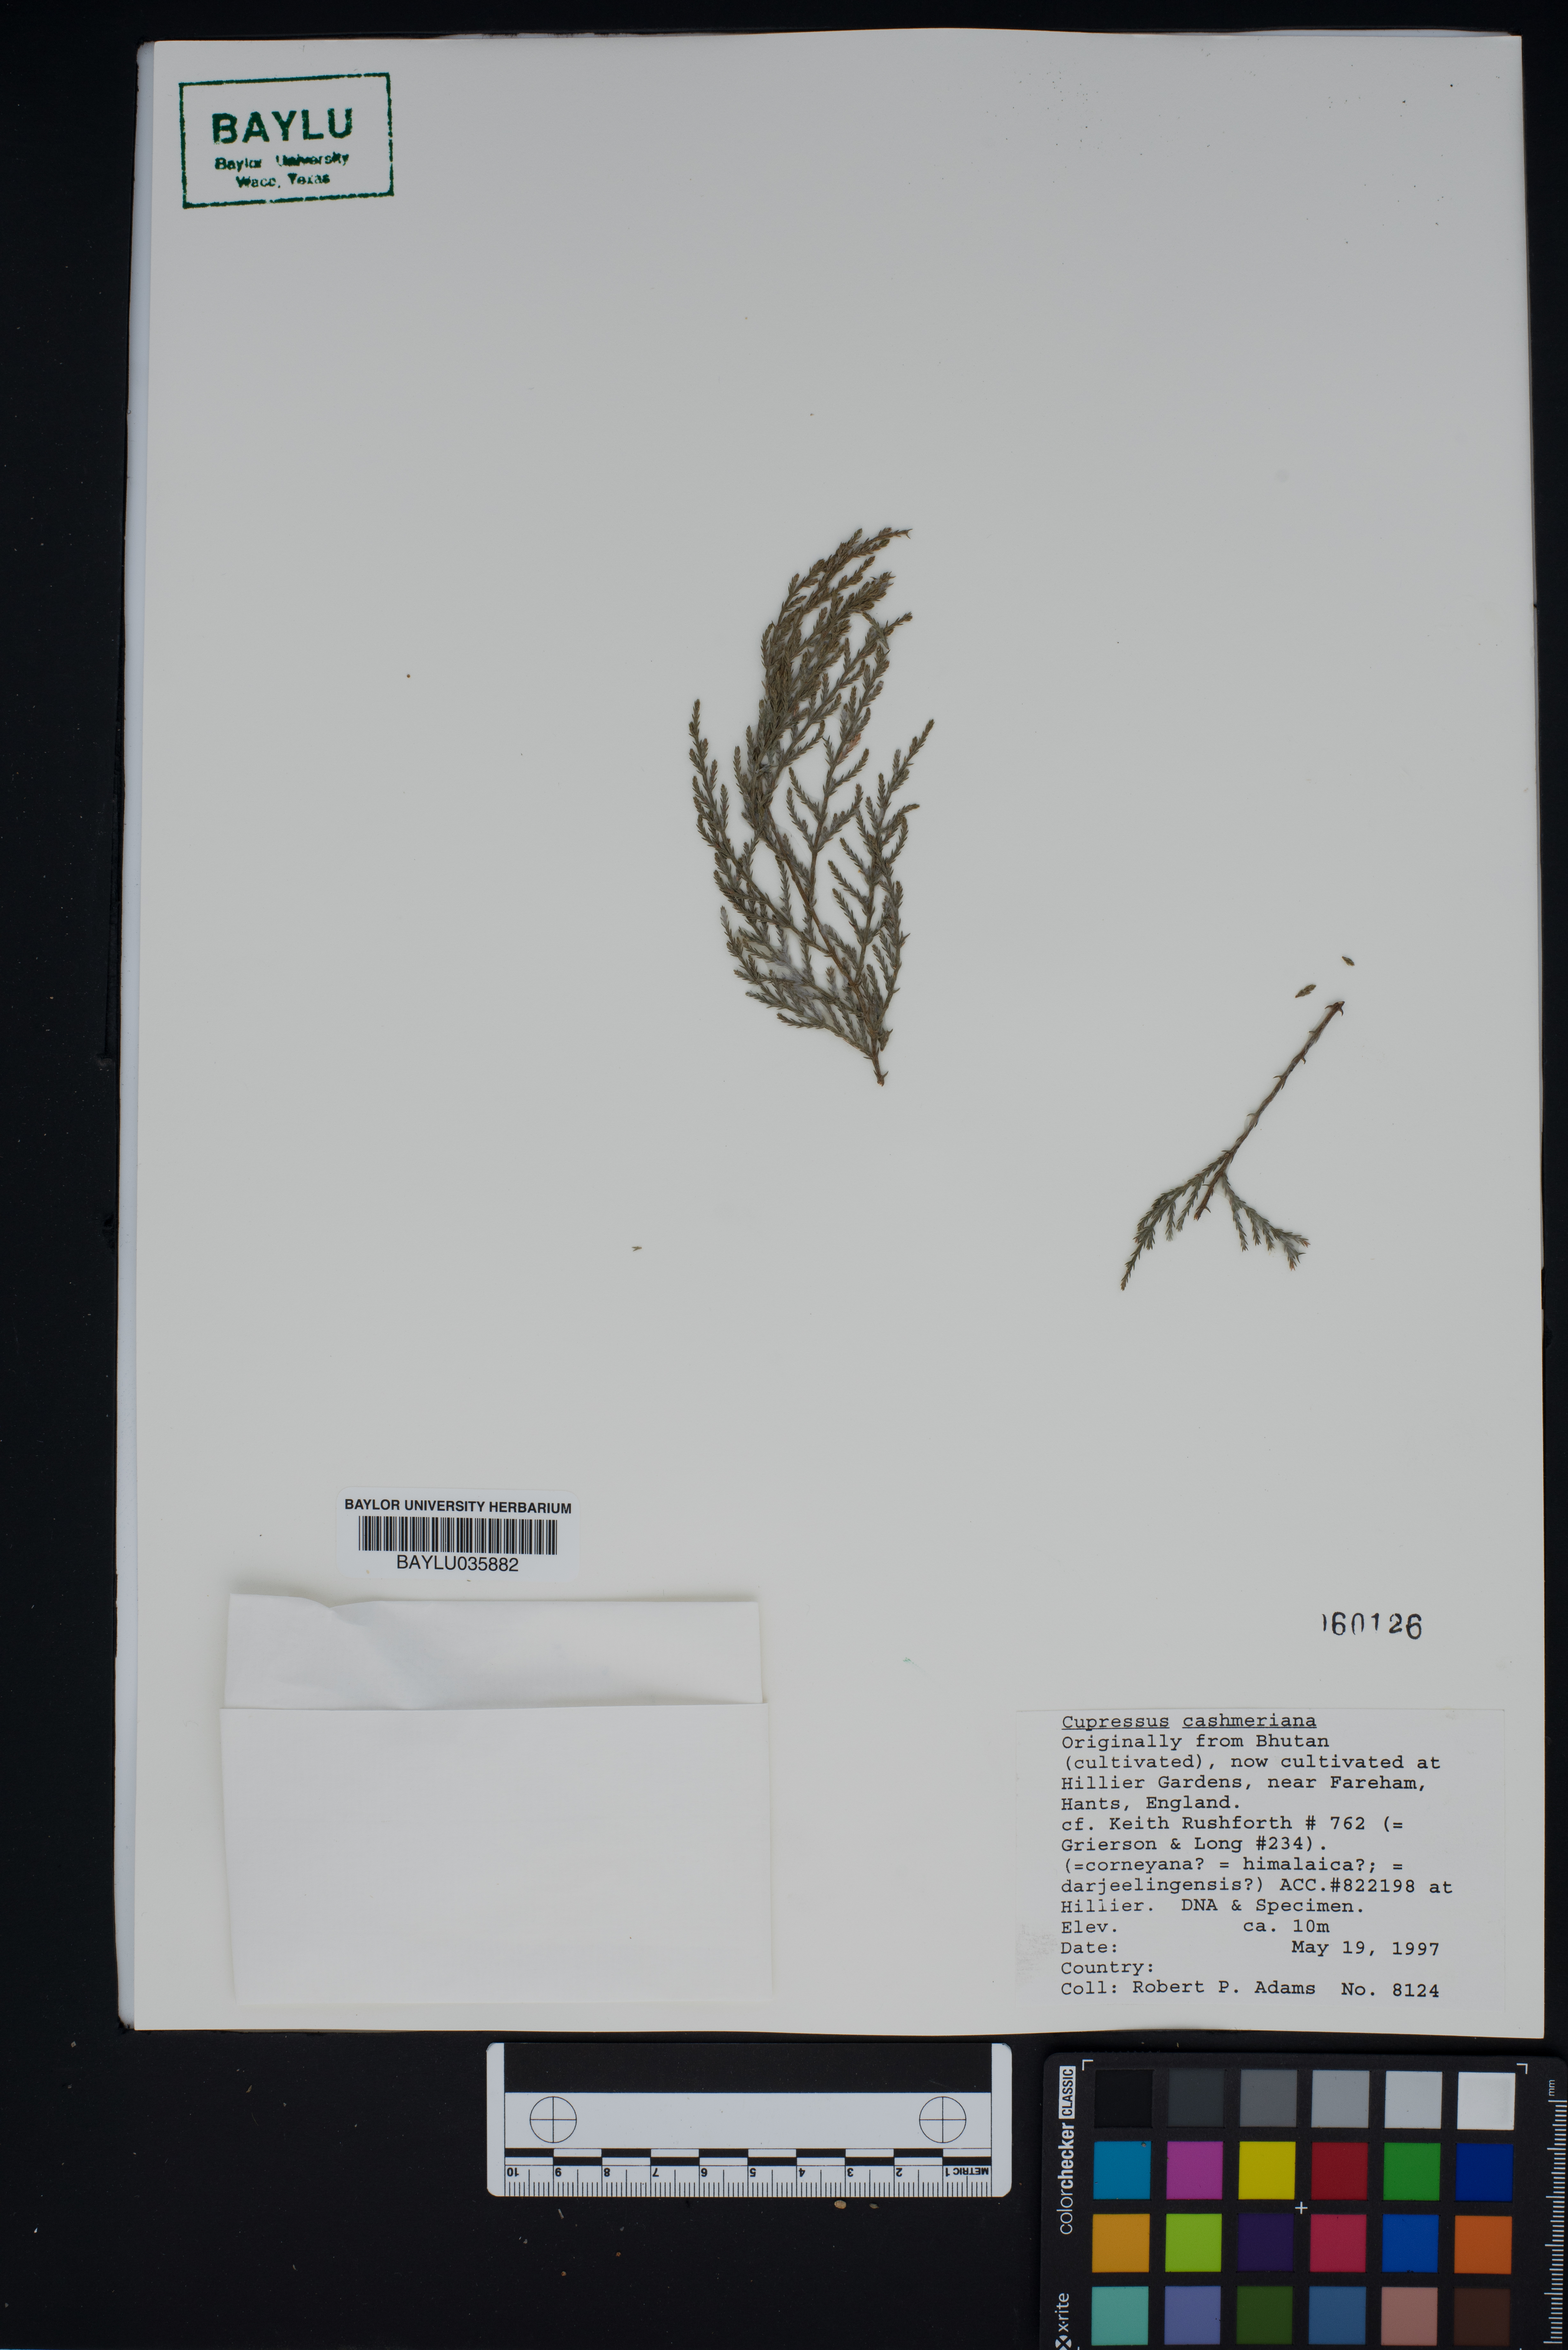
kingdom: Plantae
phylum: Tracheophyta
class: Pinopsida
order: Pinales
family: Cupressaceae
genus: Cupressus
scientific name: Cupressus cashmeriana
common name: Bhutan cypress
